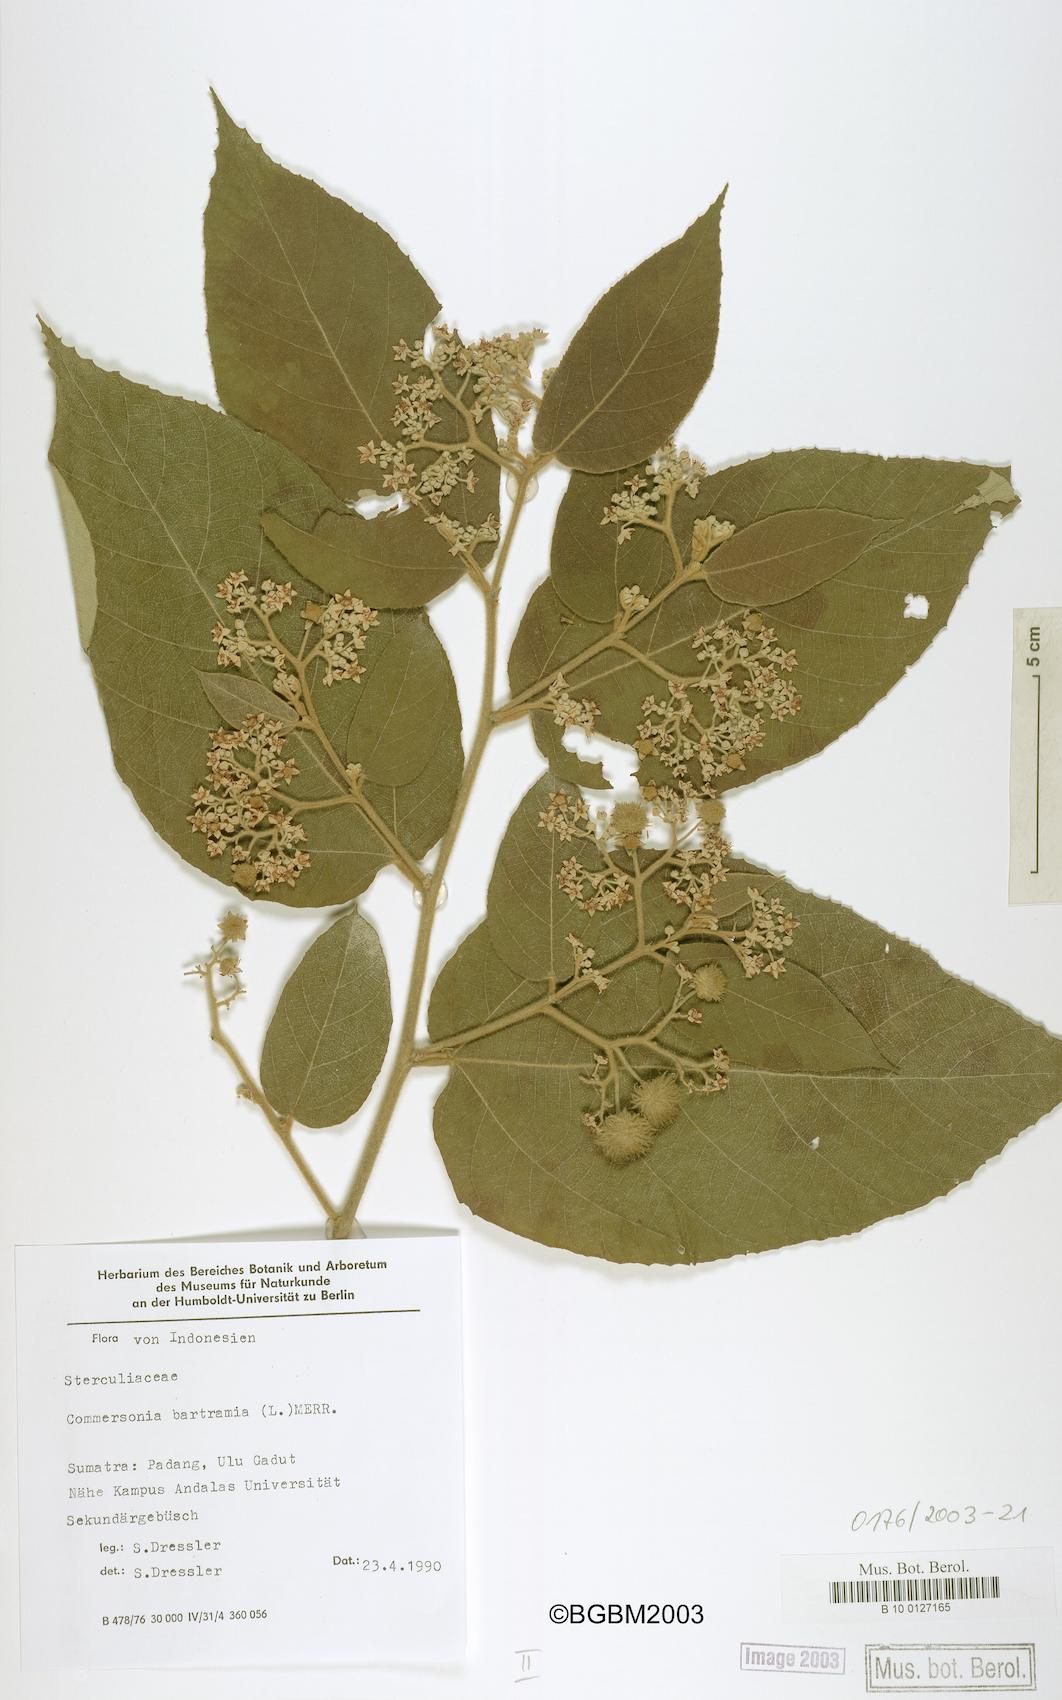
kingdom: Plantae
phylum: Tracheophyta
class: Magnoliopsida
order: Malvales
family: Malvaceae
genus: Commersonia
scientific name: Commersonia bartramia
